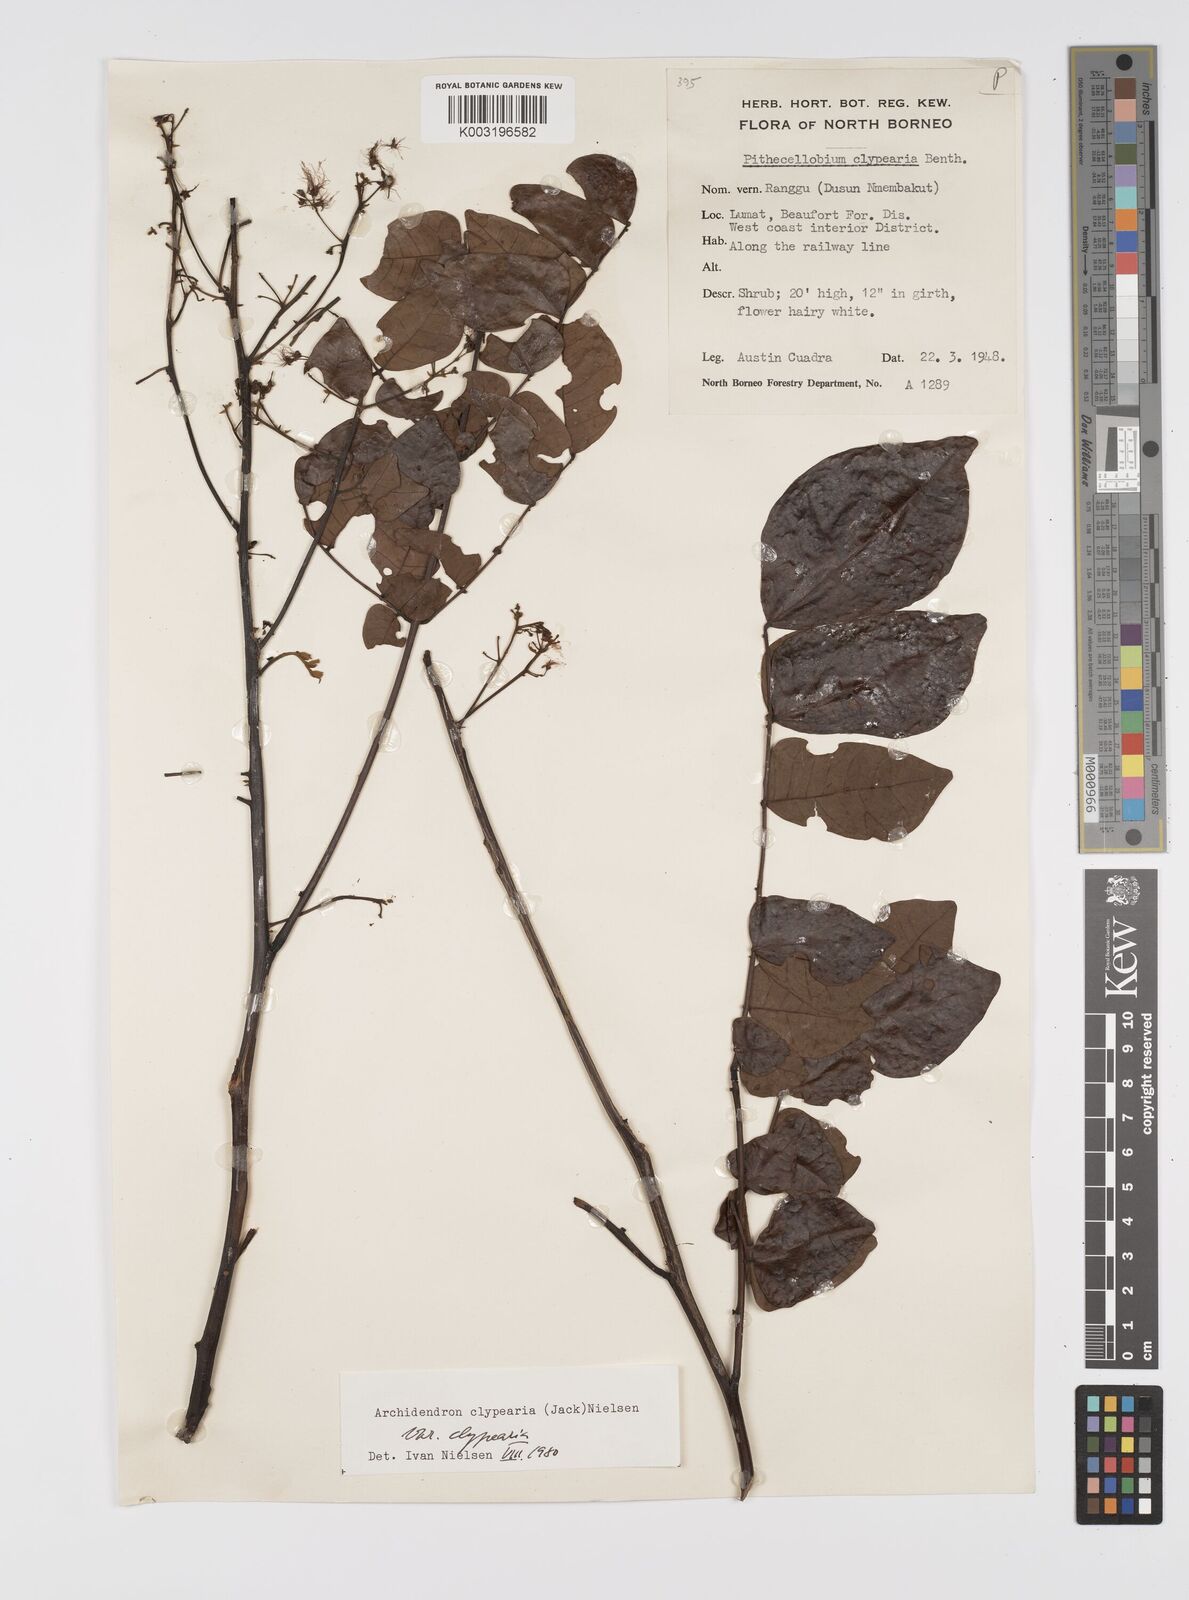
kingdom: Plantae
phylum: Tracheophyta
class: Magnoliopsida
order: Fabales
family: Fabaceae
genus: Archidendron
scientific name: Archidendron clypearia
